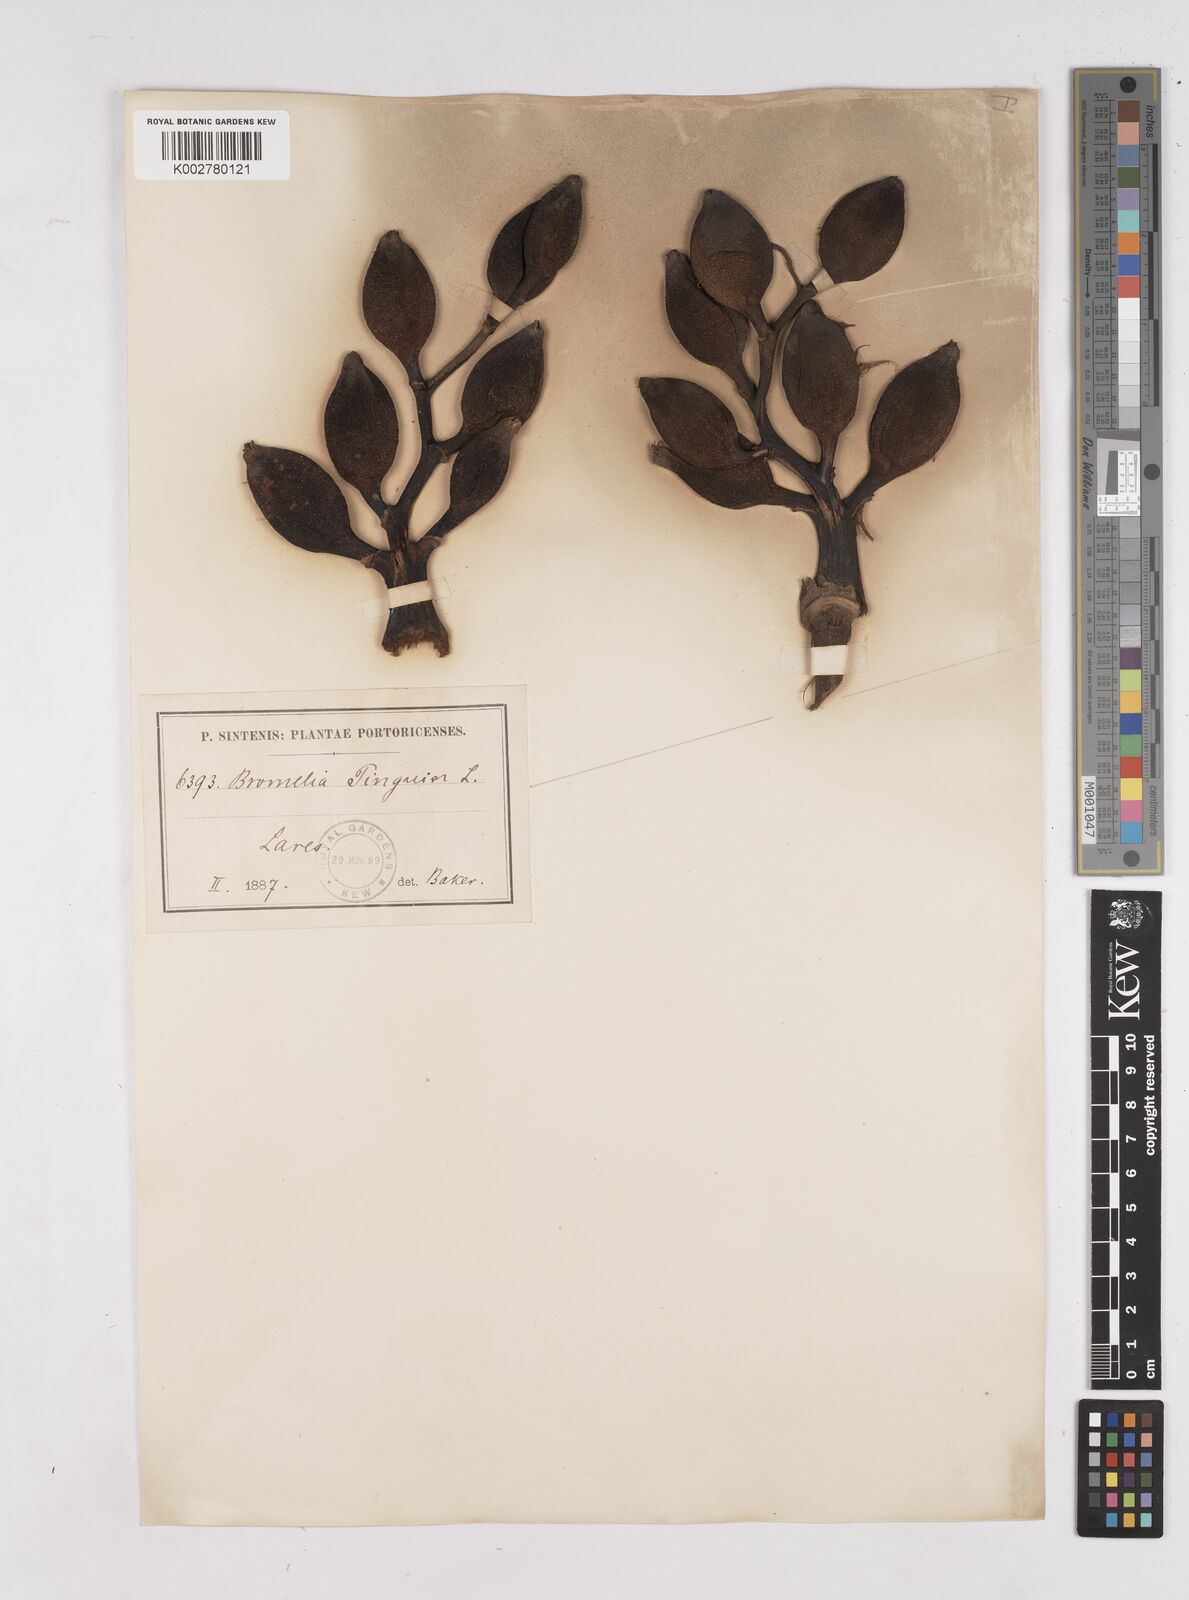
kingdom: Plantae
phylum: Tracheophyta
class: Liliopsida
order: Poales
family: Bromeliaceae
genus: Bromelia
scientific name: Bromelia pinguin
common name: Pinguin
